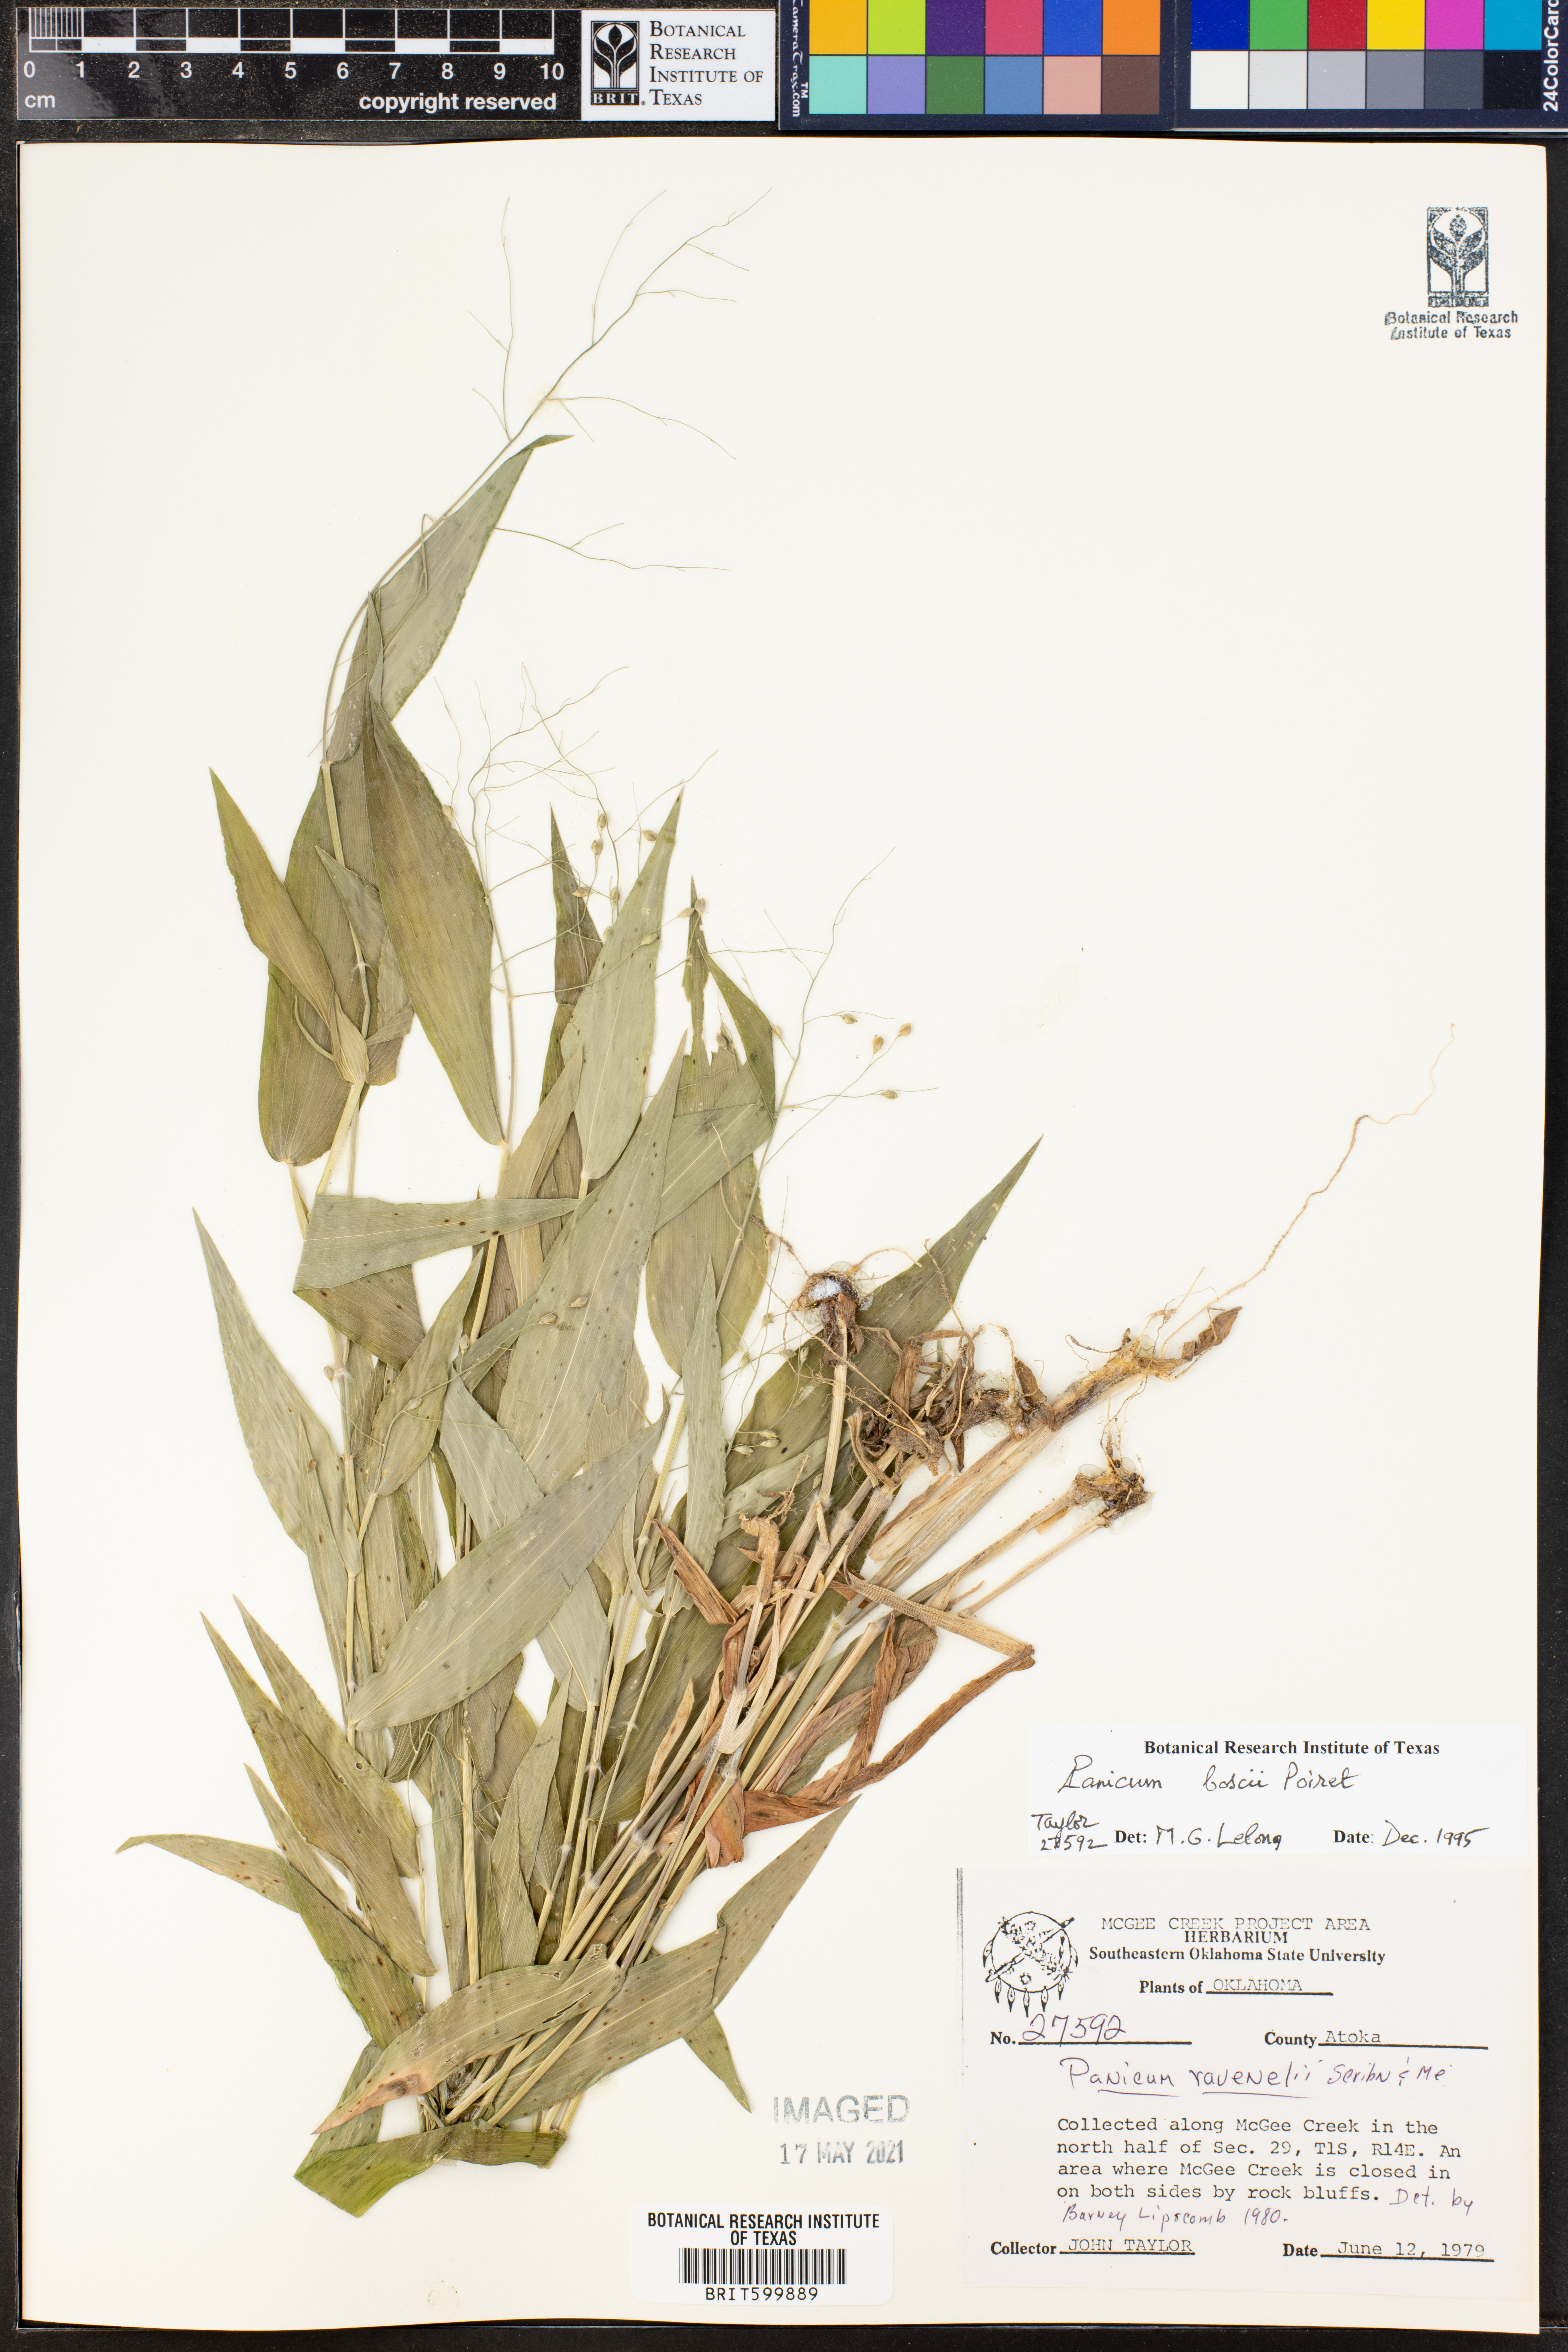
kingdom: Plantae
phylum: Tracheophyta
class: Liliopsida
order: Poales
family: Poaceae
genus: Dichanthelium
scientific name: Dichanthelium boscii
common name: Bosc's panic grass
